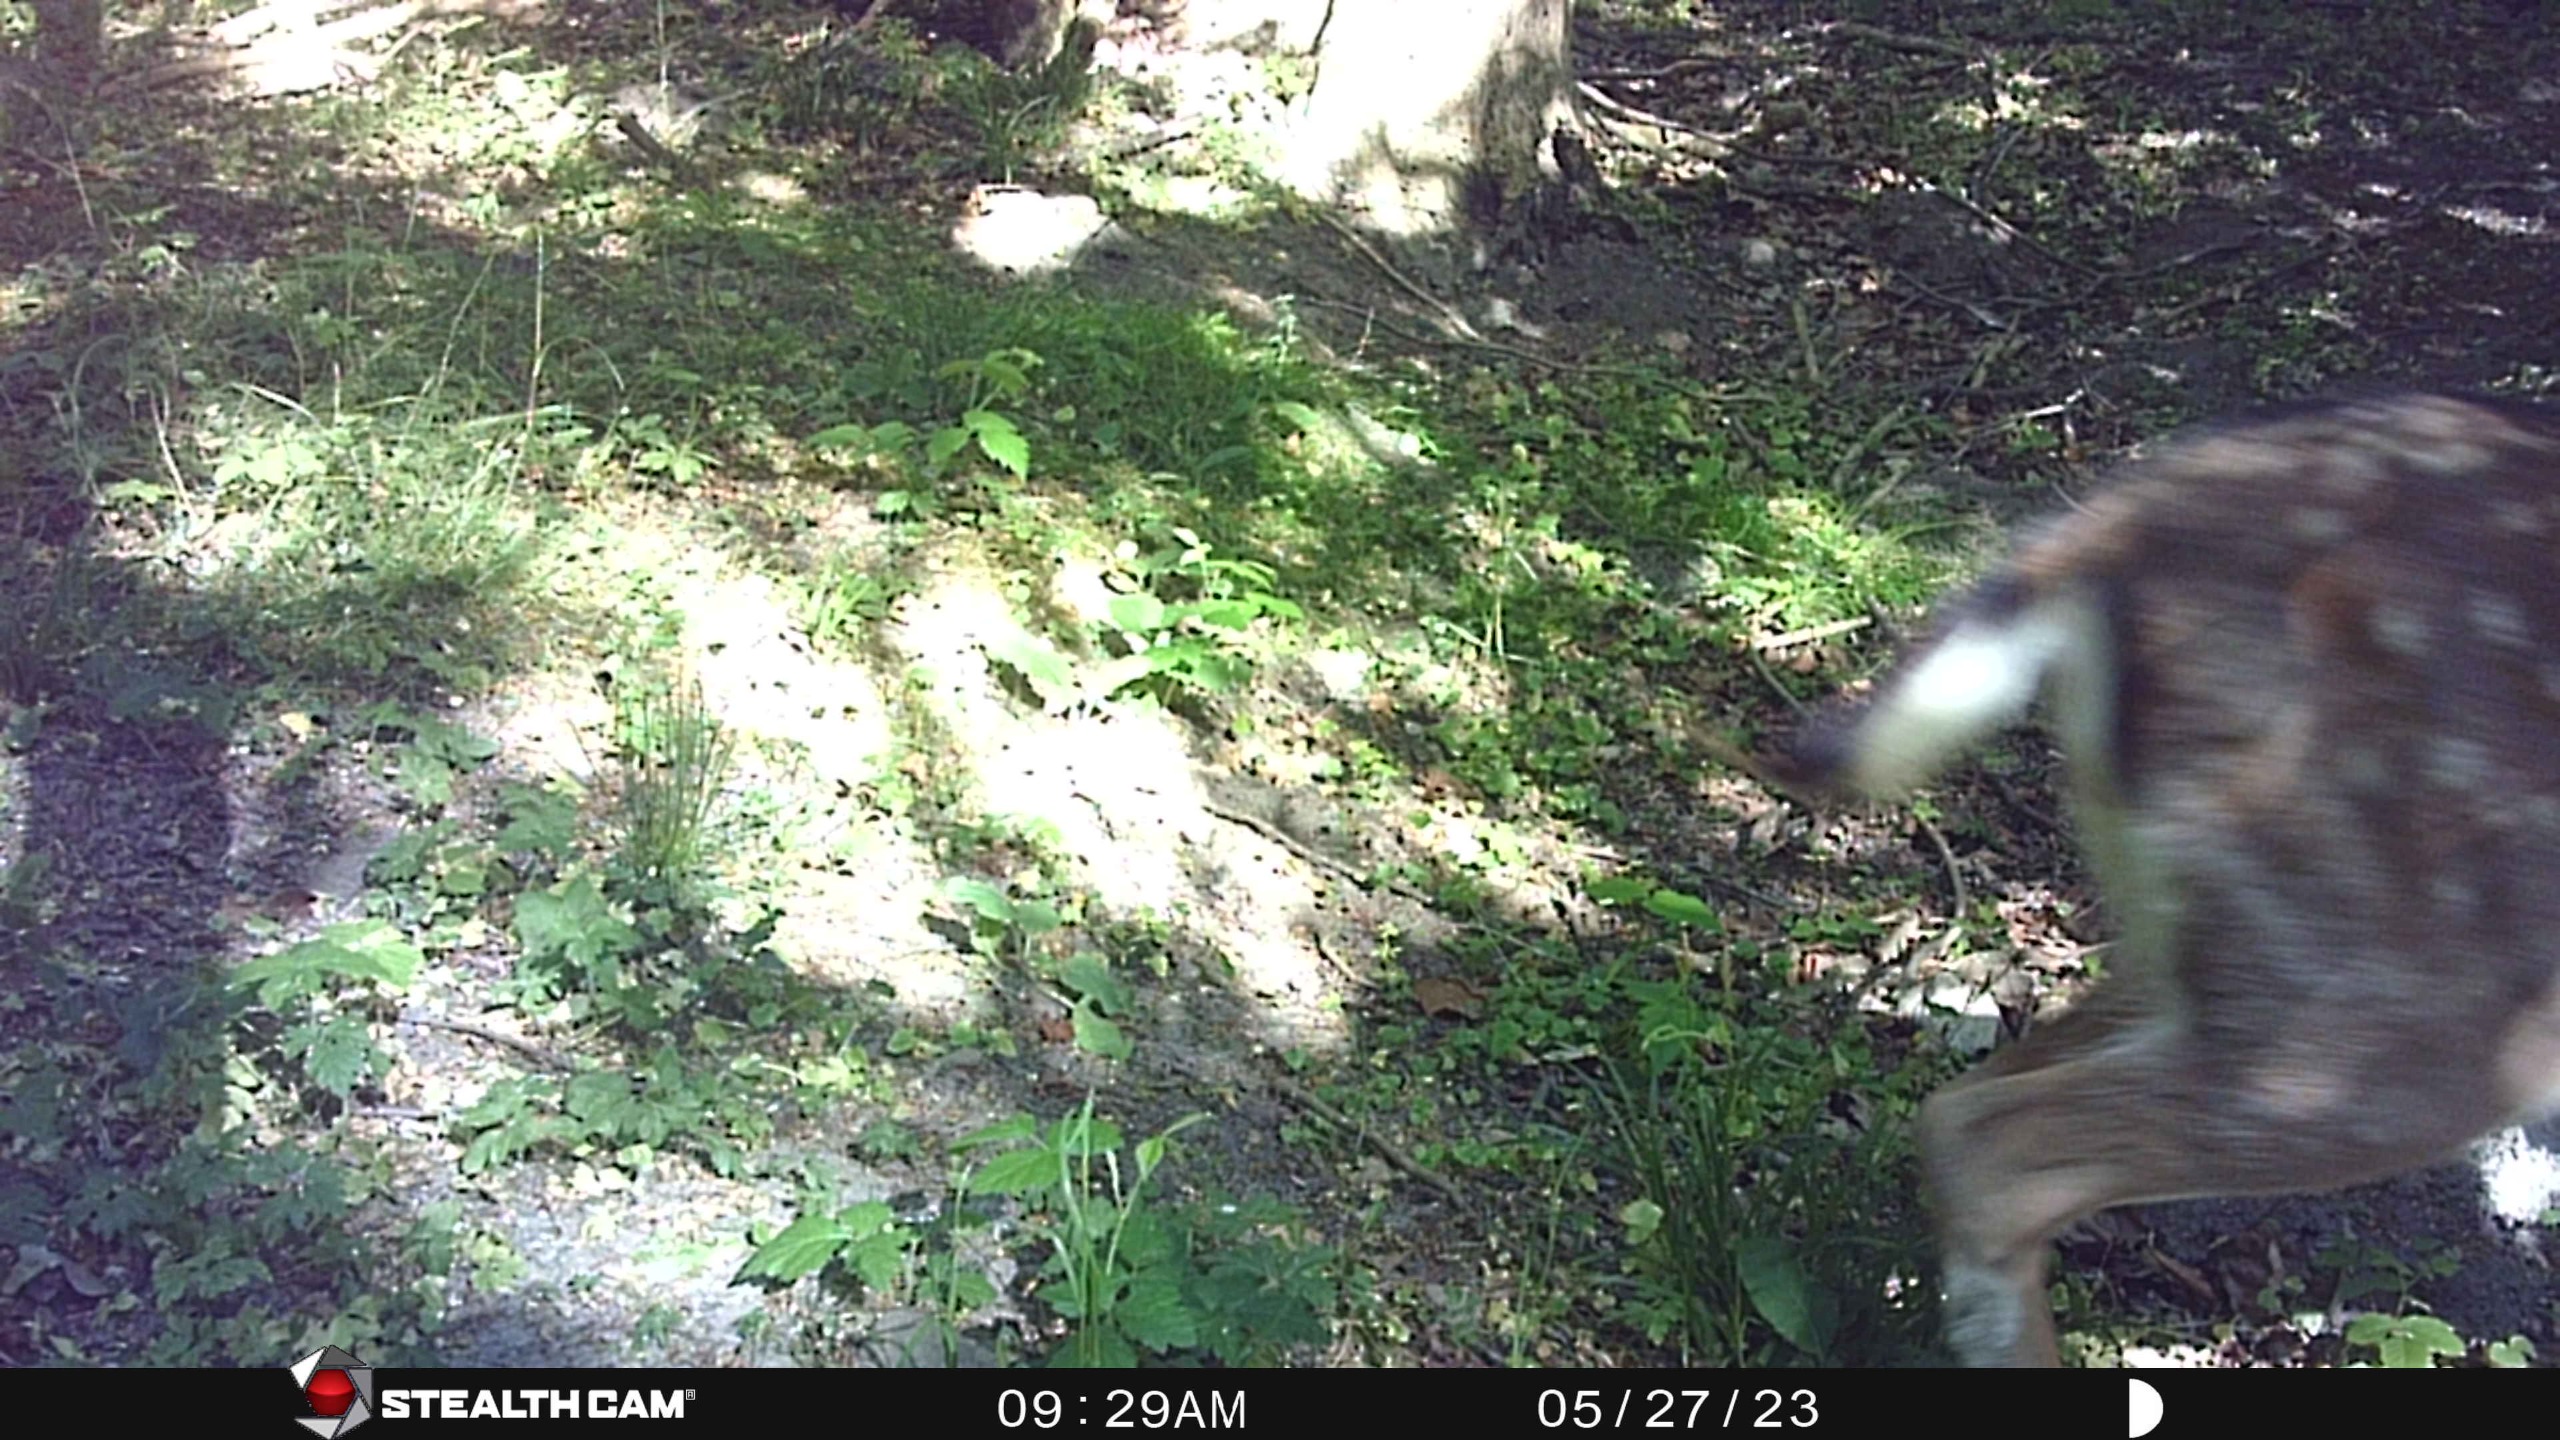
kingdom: Animalia
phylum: Chordata
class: Mammalia
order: Artiodactyla
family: Cervidae
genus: Dama
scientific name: Dama dama
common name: Dådyr
